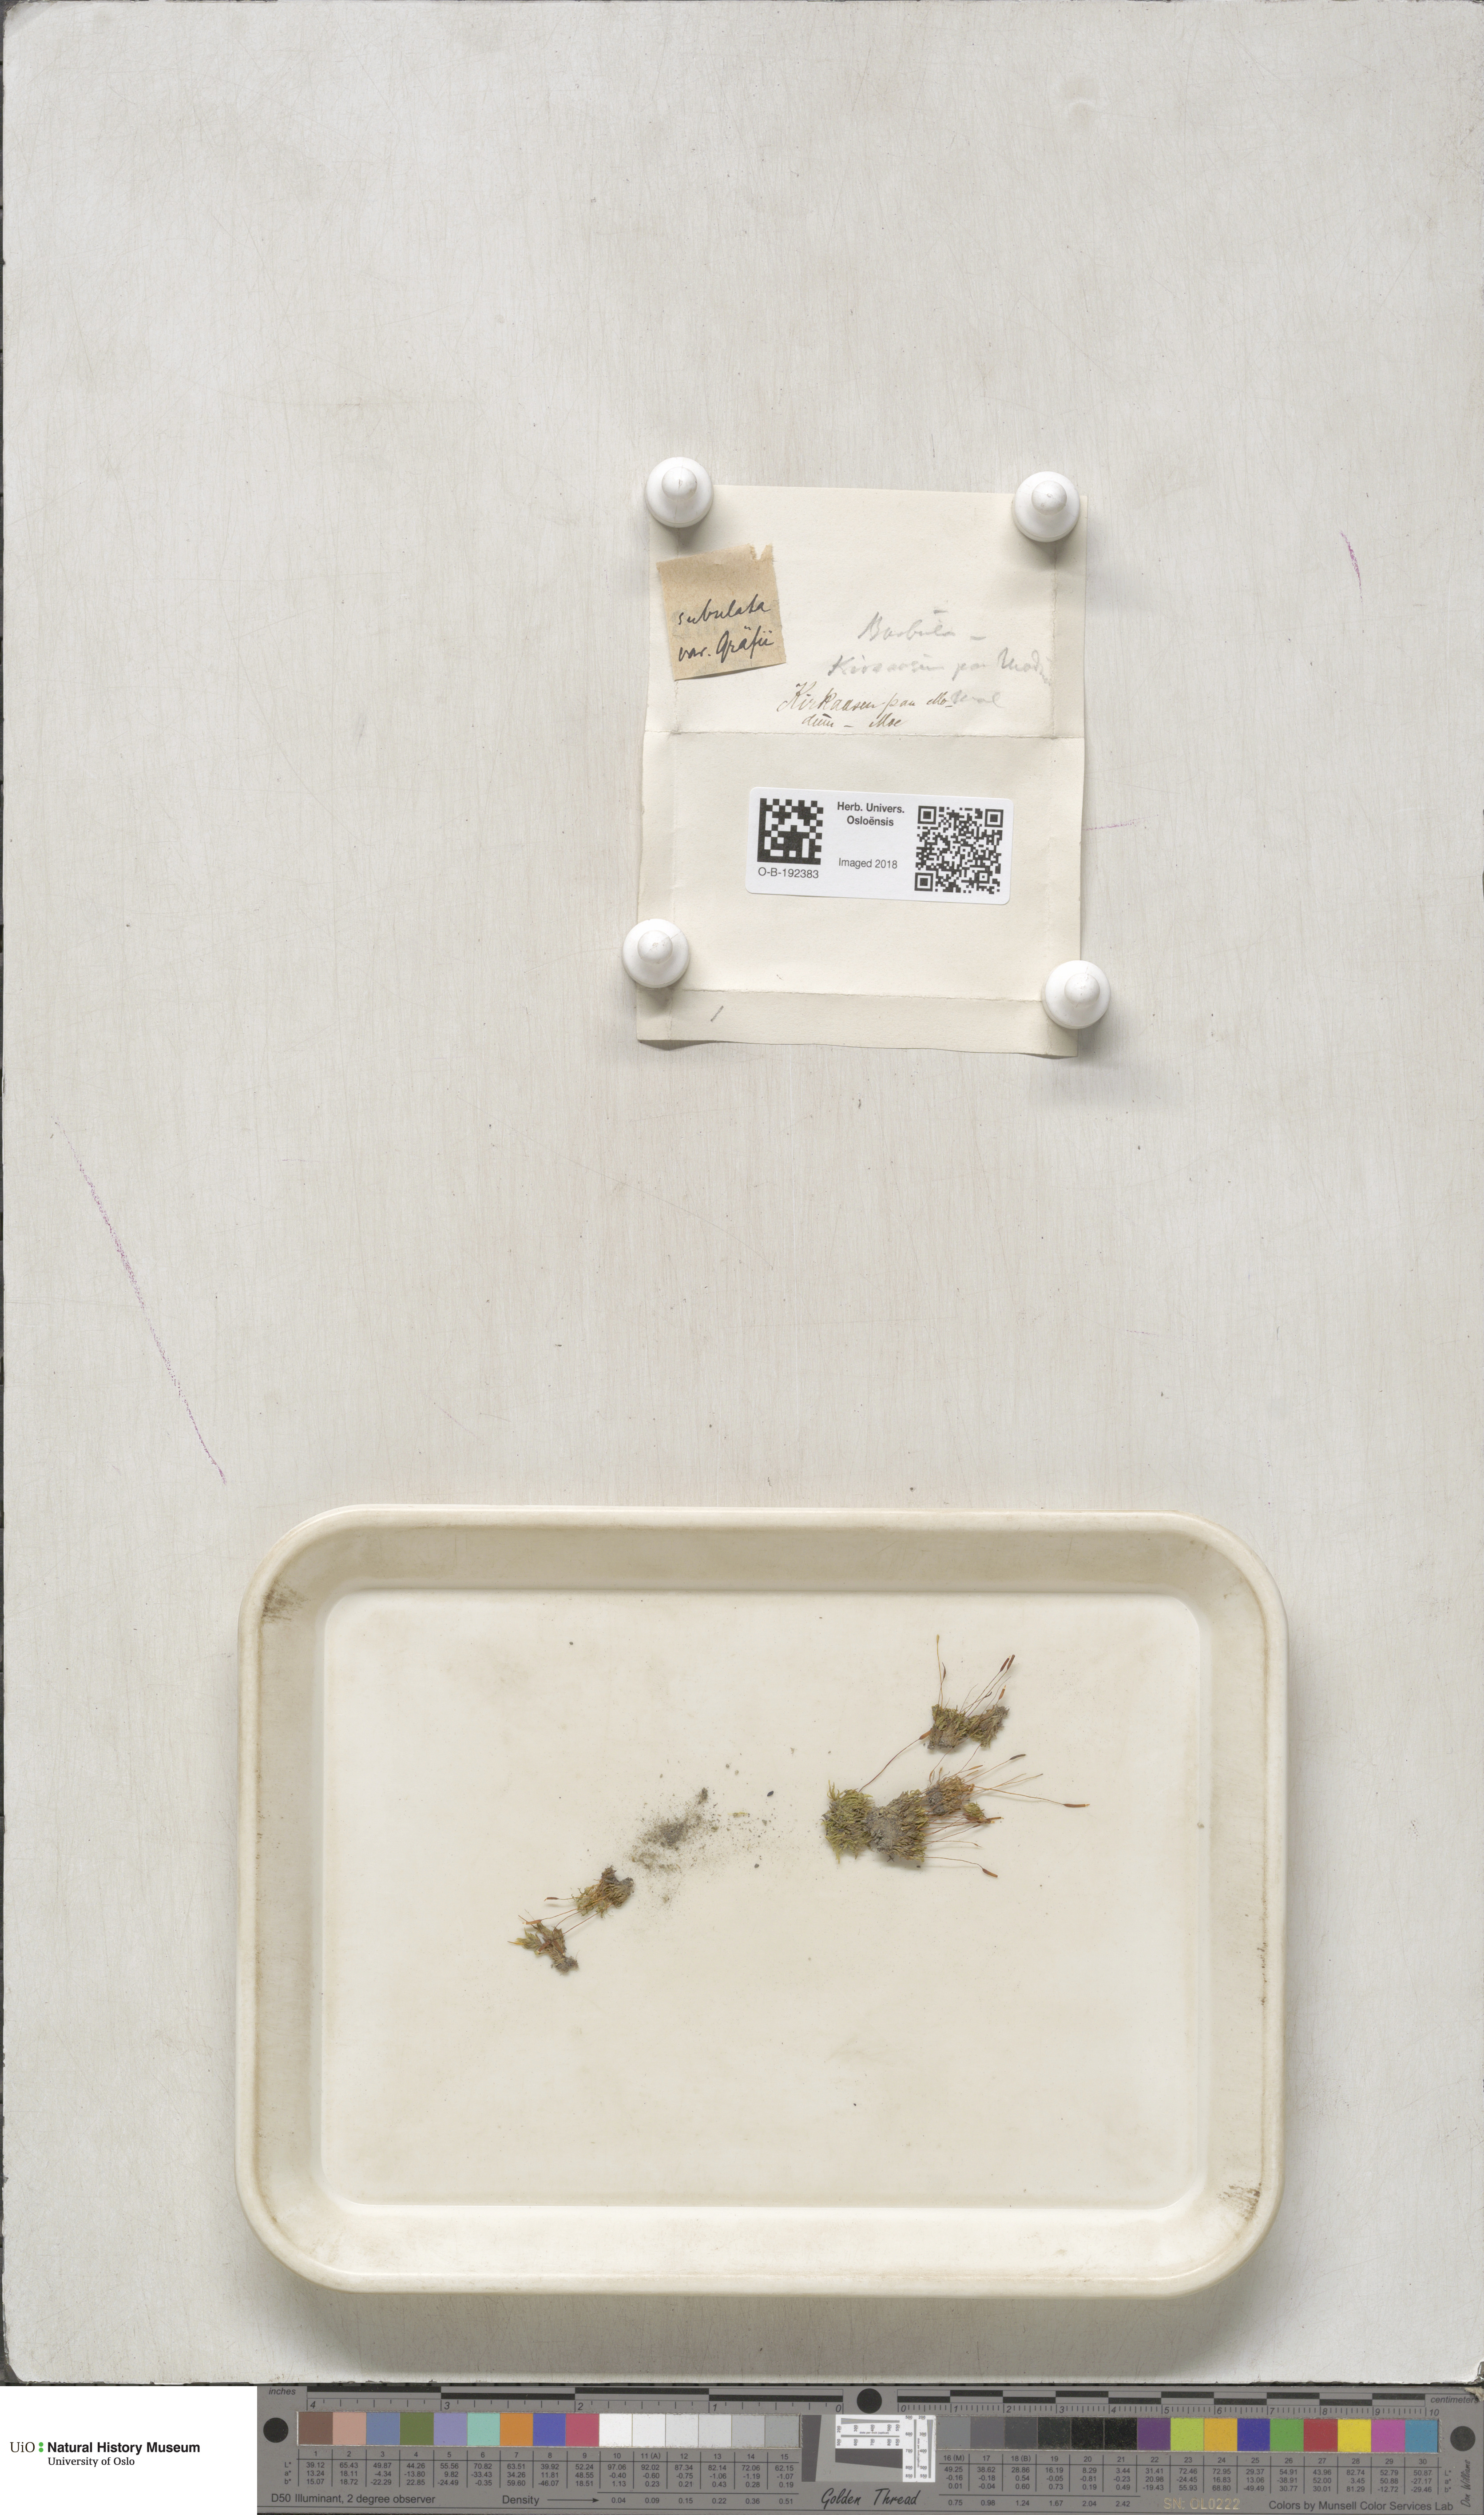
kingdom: Plantae
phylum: Bryophyta
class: Bryopsida
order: Pottiales
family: Pottiaceae
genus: Tortula
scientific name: Tortula subulata
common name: Upright screw-moss
